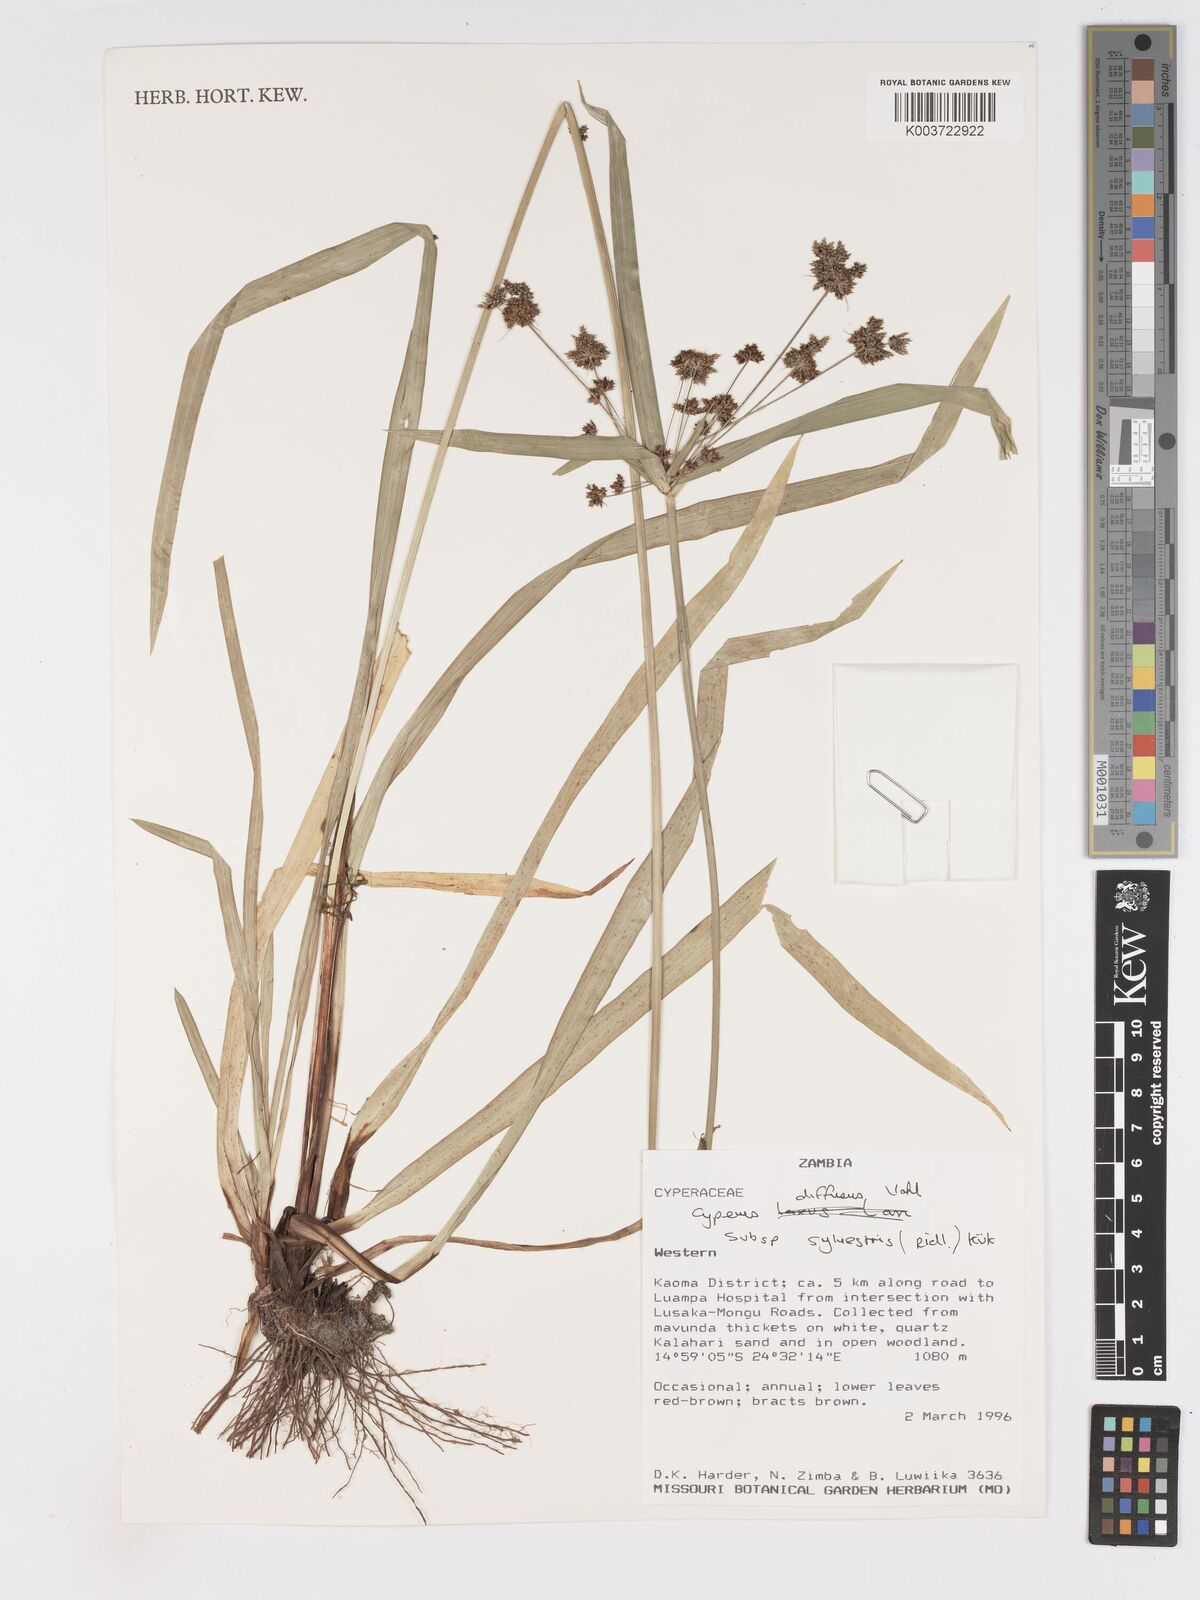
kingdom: Plantae
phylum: Tracheophyta
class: Liliopsida
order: Poales
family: Cyperaceae
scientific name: Cyperaceae
